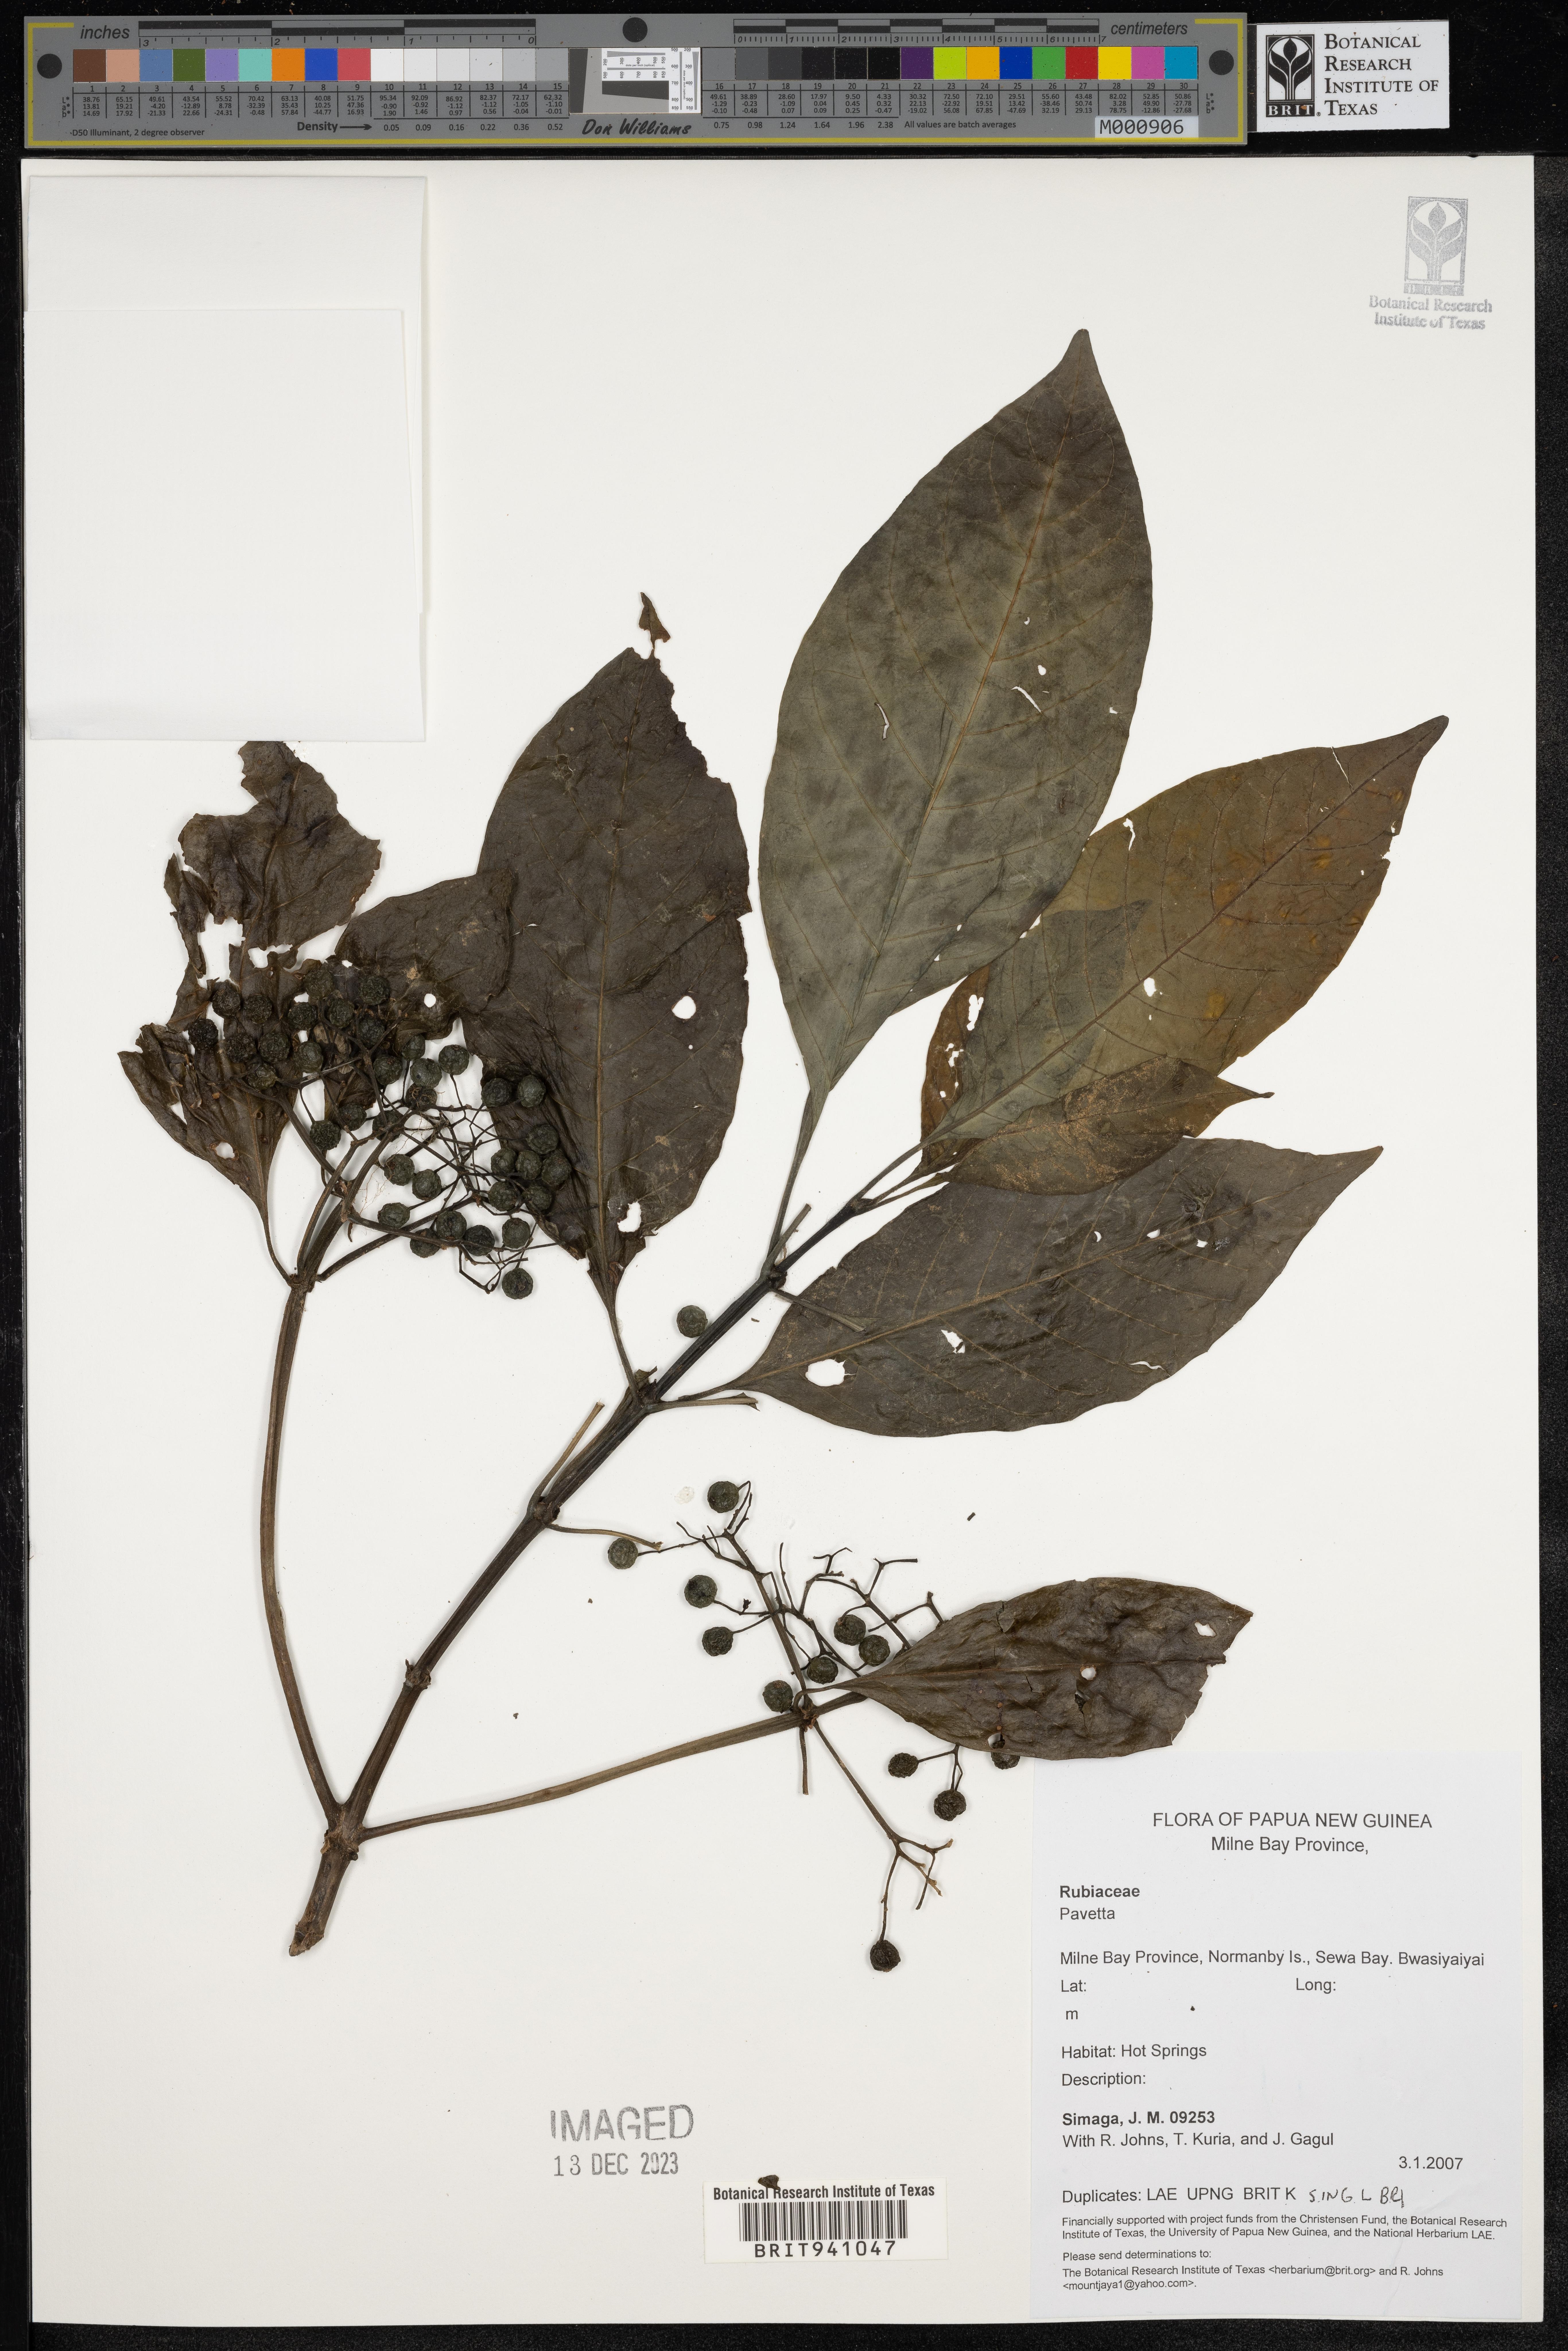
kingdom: Plantae
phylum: Tracheophyta
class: Magnoliopsida
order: Gentianales
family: Rubiaceae
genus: Pavetta
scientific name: Pavetta
